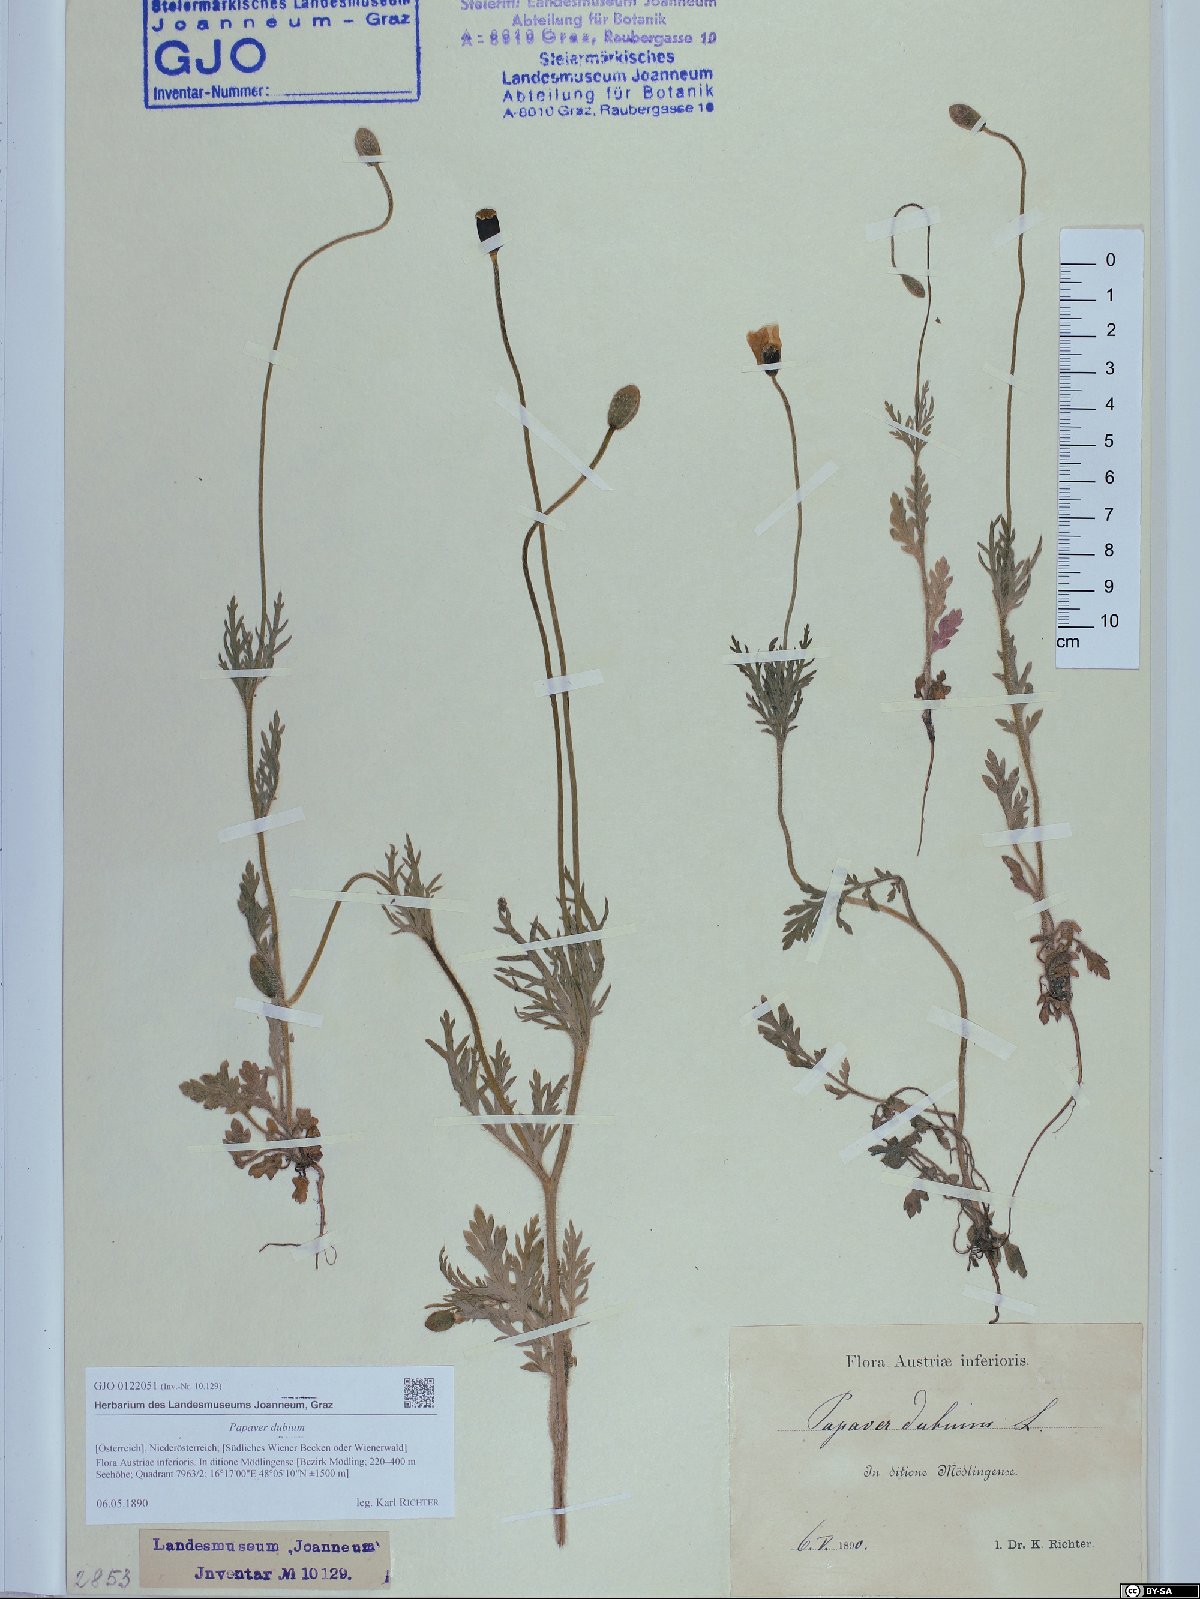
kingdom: Plantae
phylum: Tracheophyta
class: Magnoliopsida
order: Ranunculales
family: Papaveraceae
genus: Papaver
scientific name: Papaver dubium
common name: Long-headed poppy
